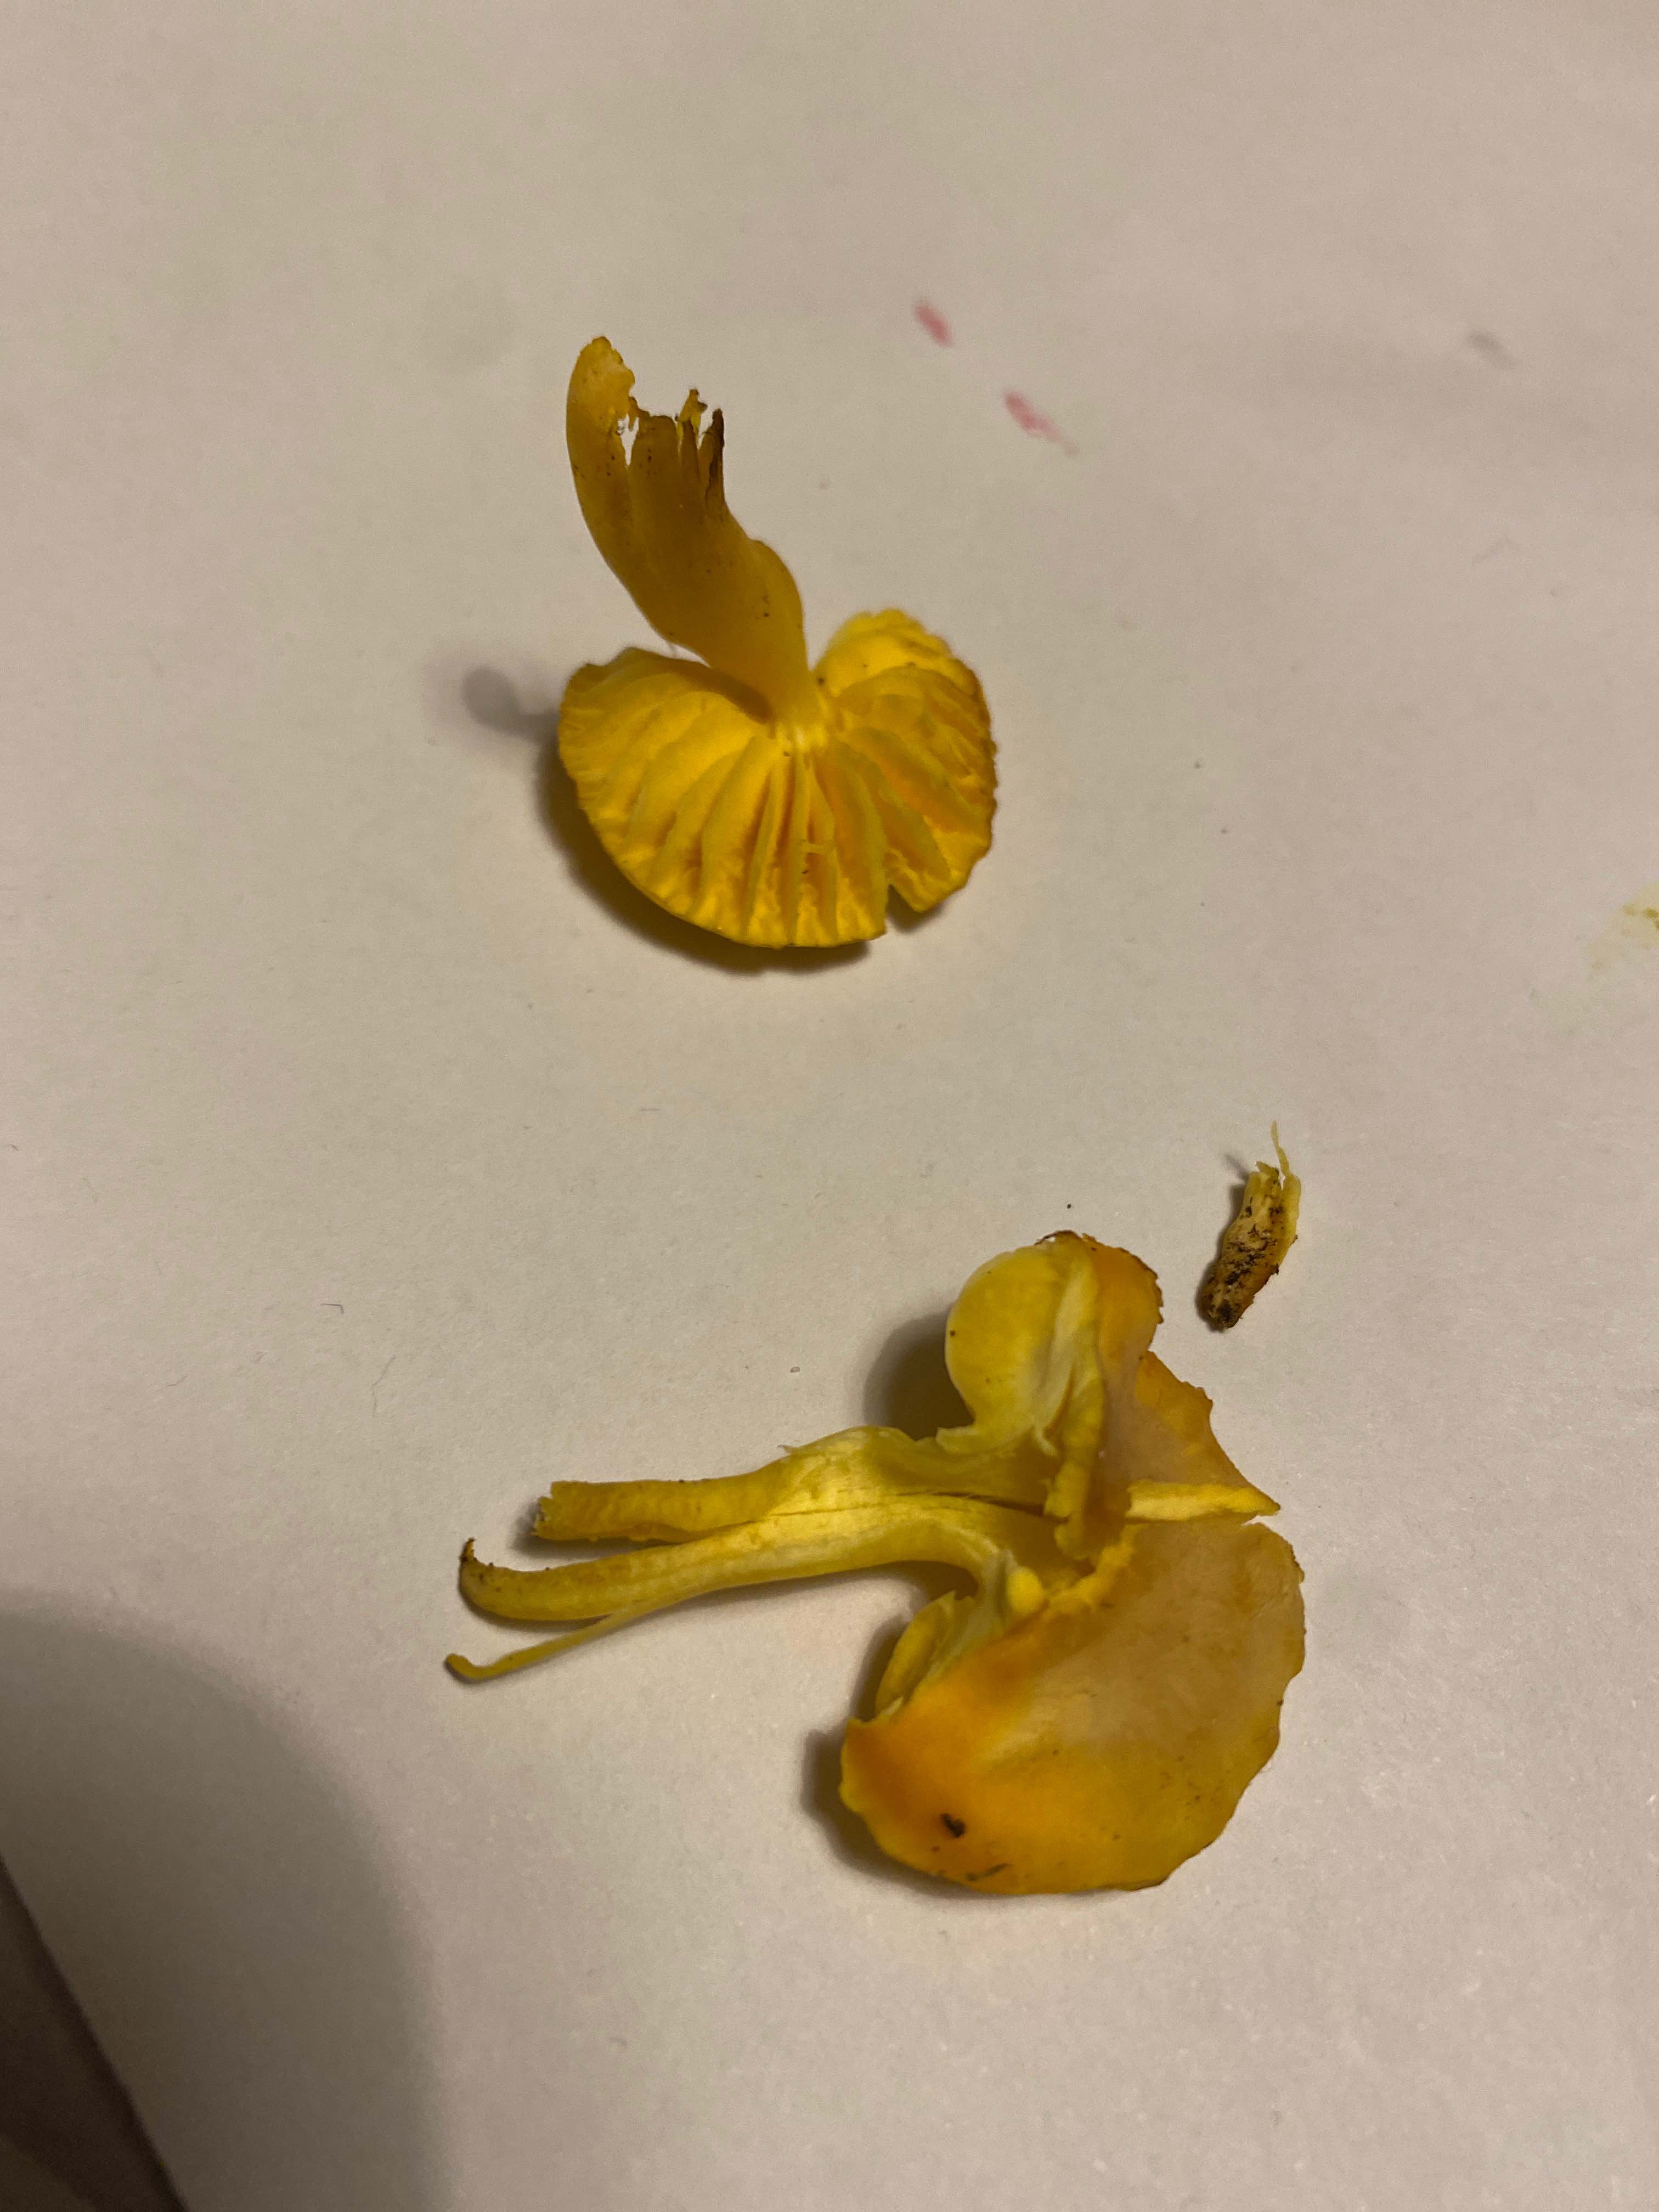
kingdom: Fungi
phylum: Basidiomycota
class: Agaricomycetes
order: Agaricales
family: Hygrophoraceae
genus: Hygrocybe
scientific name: Hygrocybe
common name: vokshat
